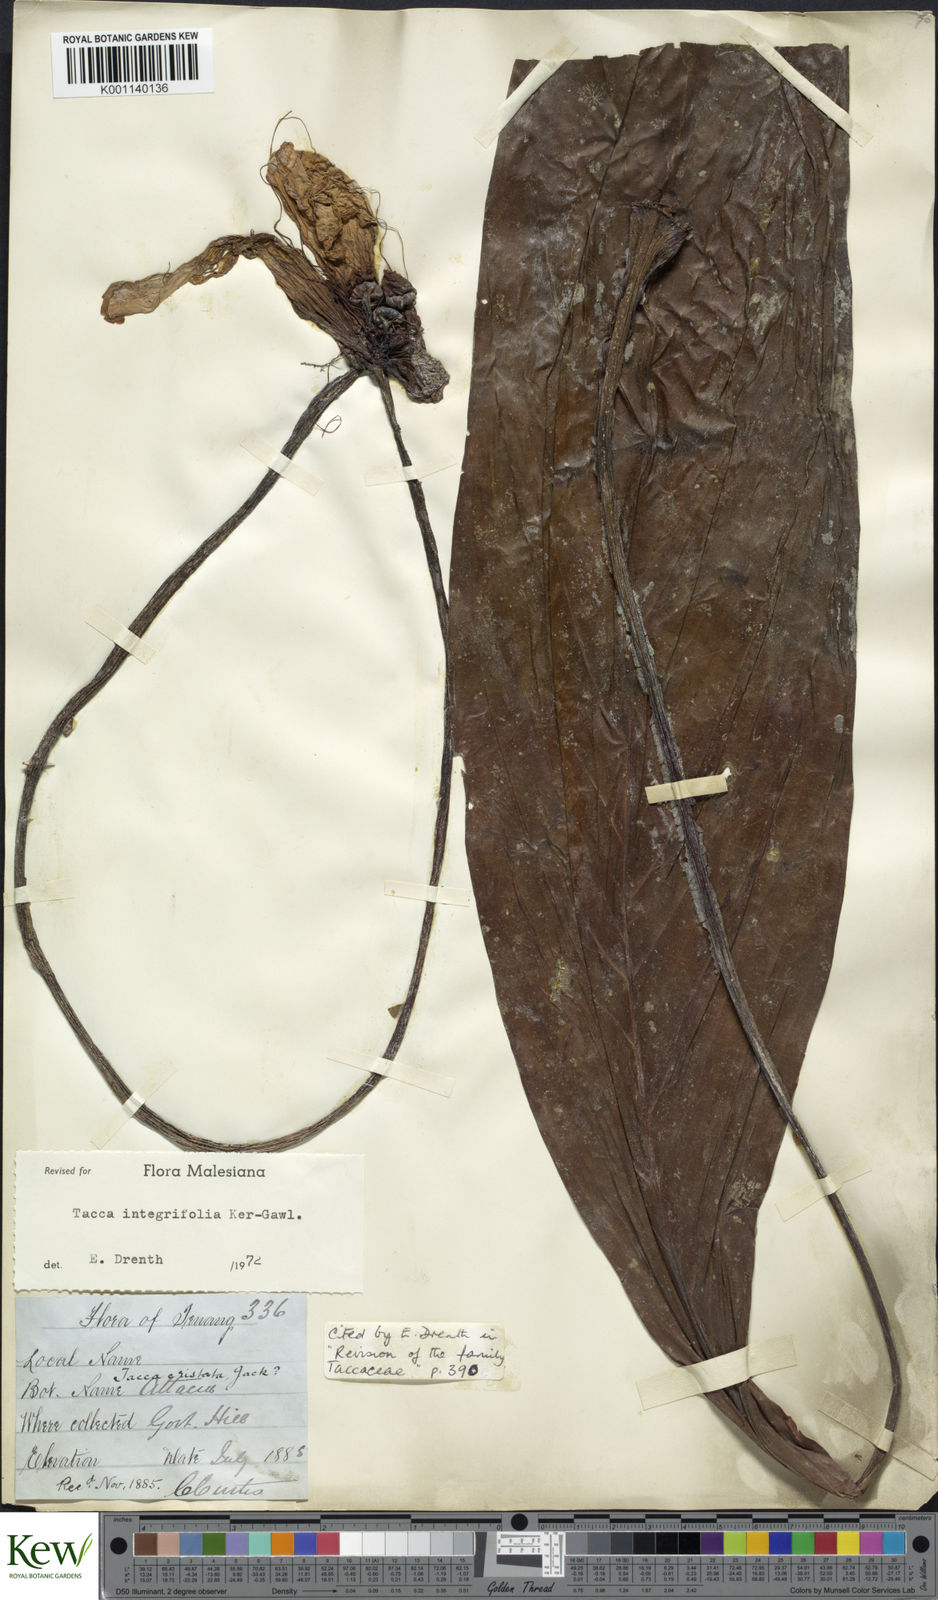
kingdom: Plantae
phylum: Tracheophyta
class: Liliopsida
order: Dioscoreales
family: Dioscoreaceae
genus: Tacca
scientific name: Tacca integrifolia
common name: Batplant
